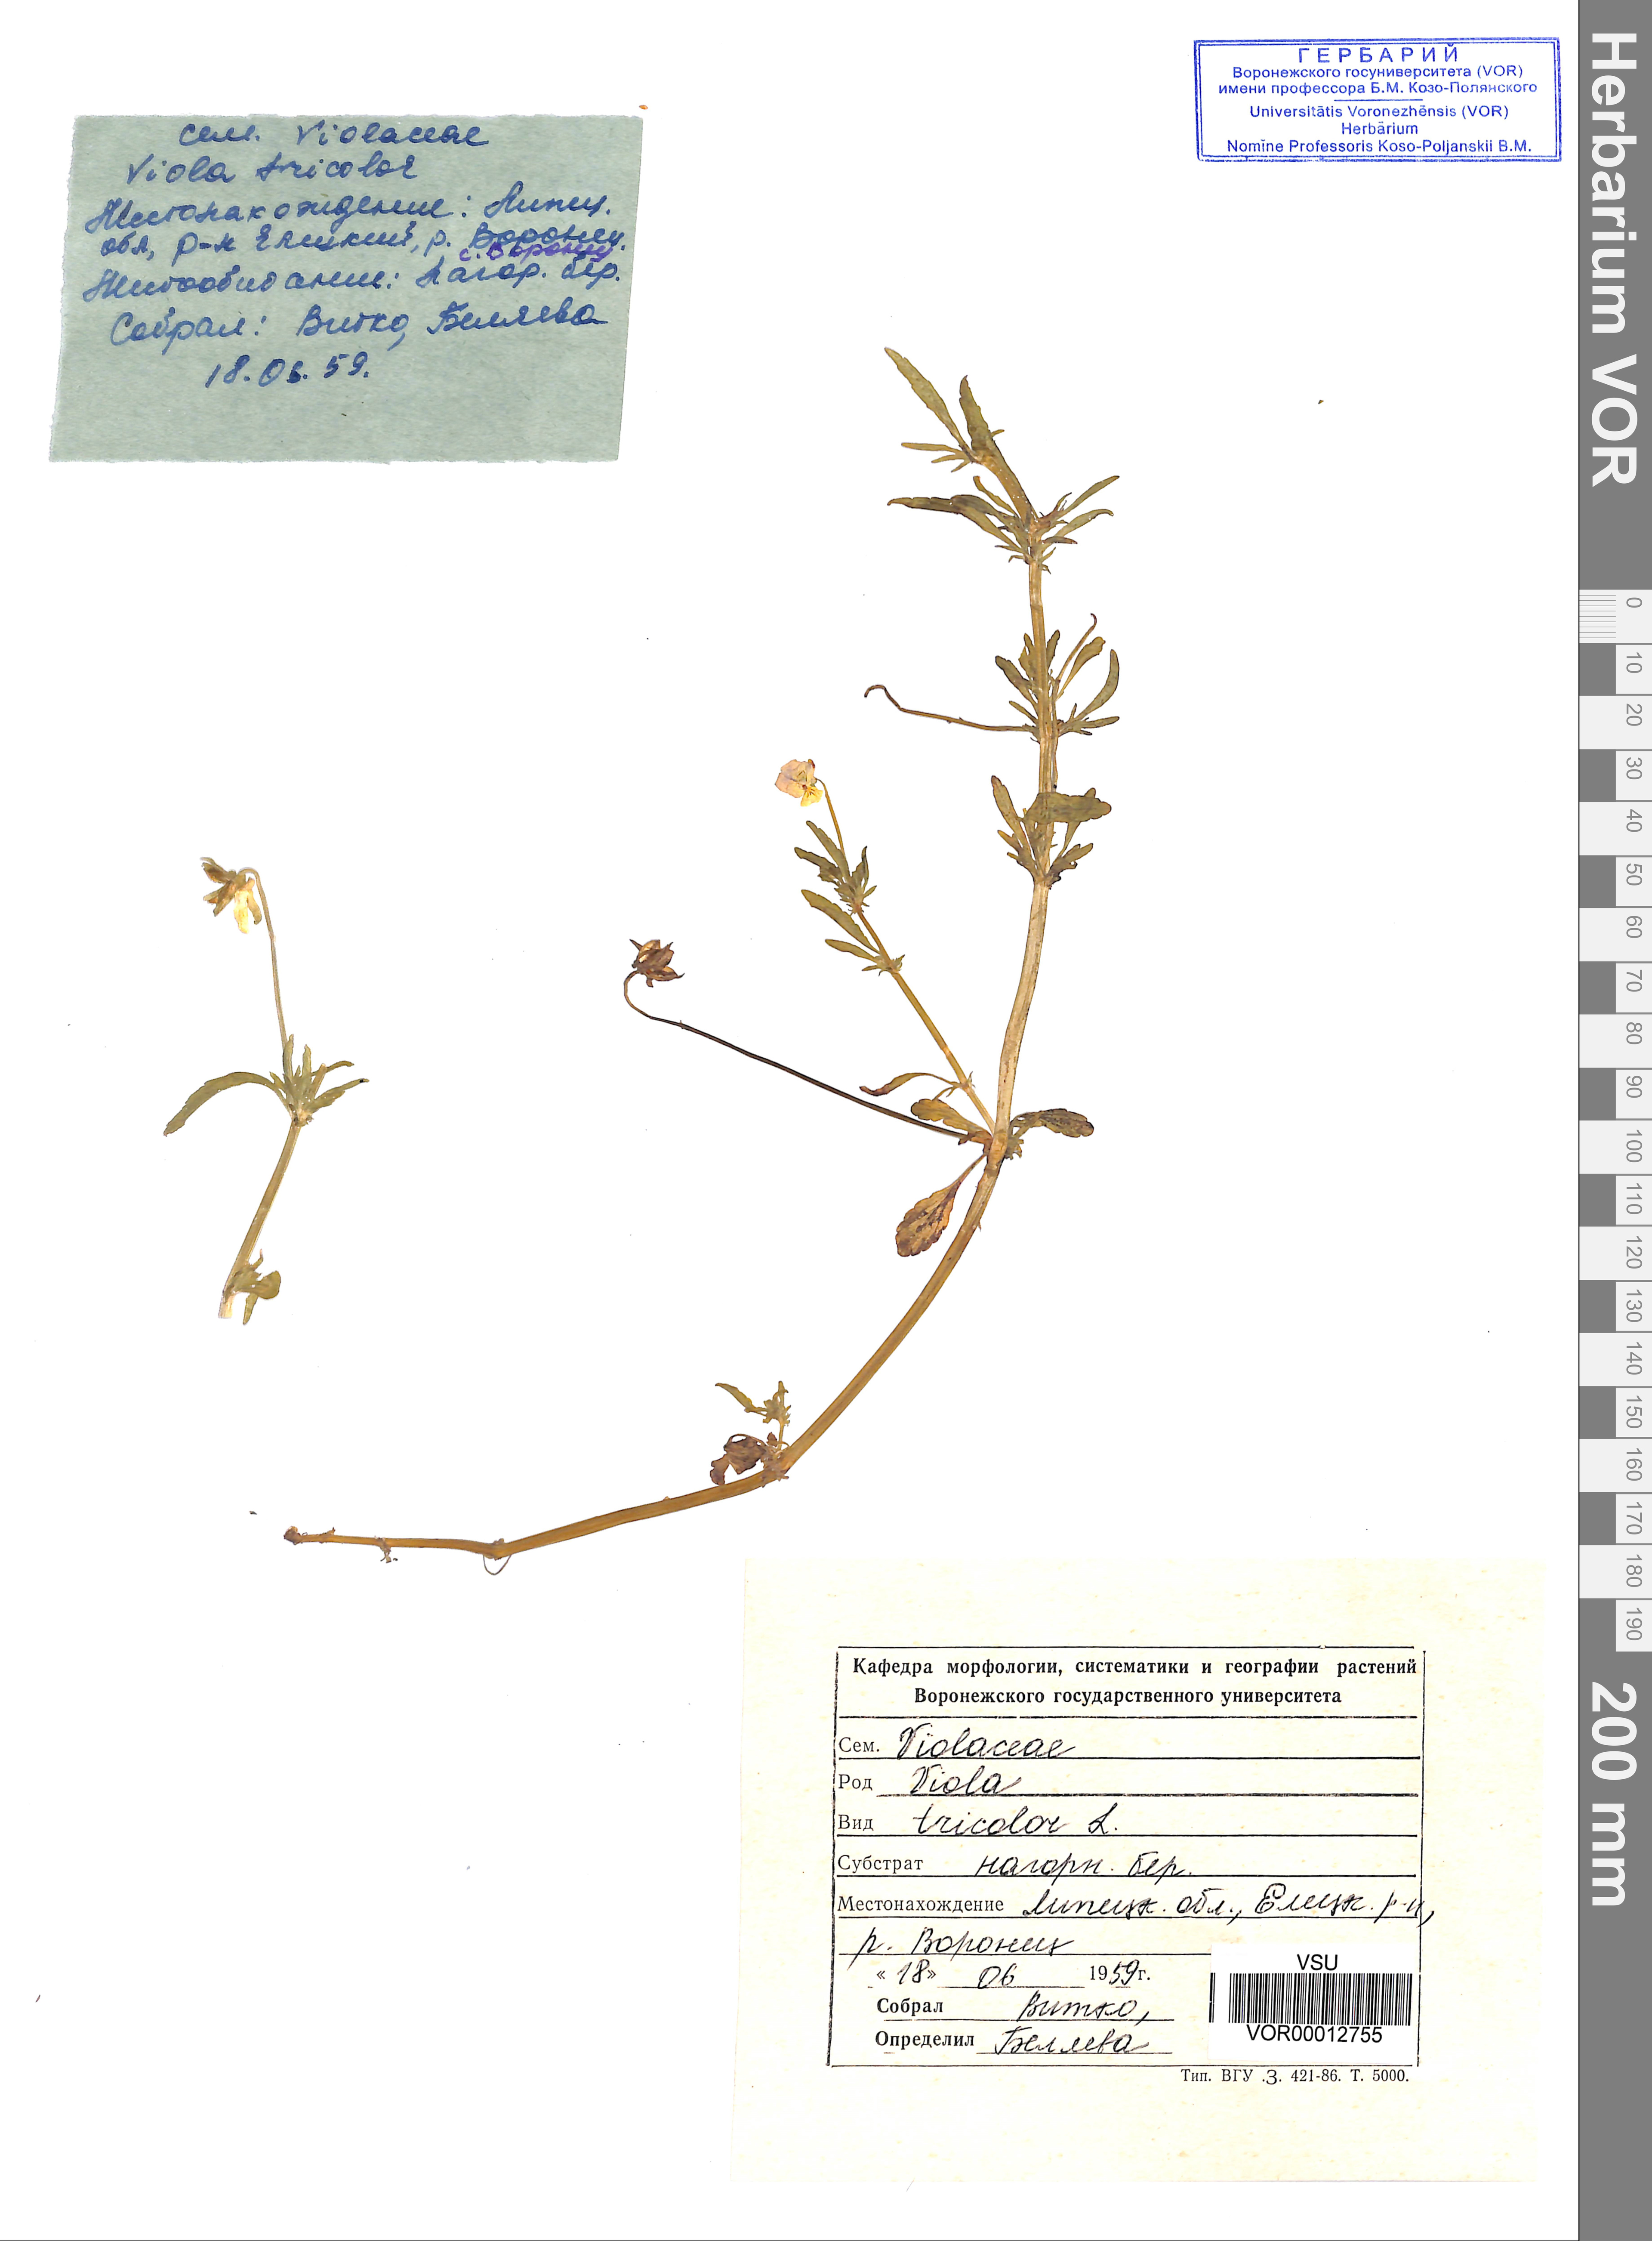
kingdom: Plantae
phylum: Tracheophyta
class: Magnoliopsida
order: Malpighiales
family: Violaceae
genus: Viola
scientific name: Viola tricolor
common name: Pansy
